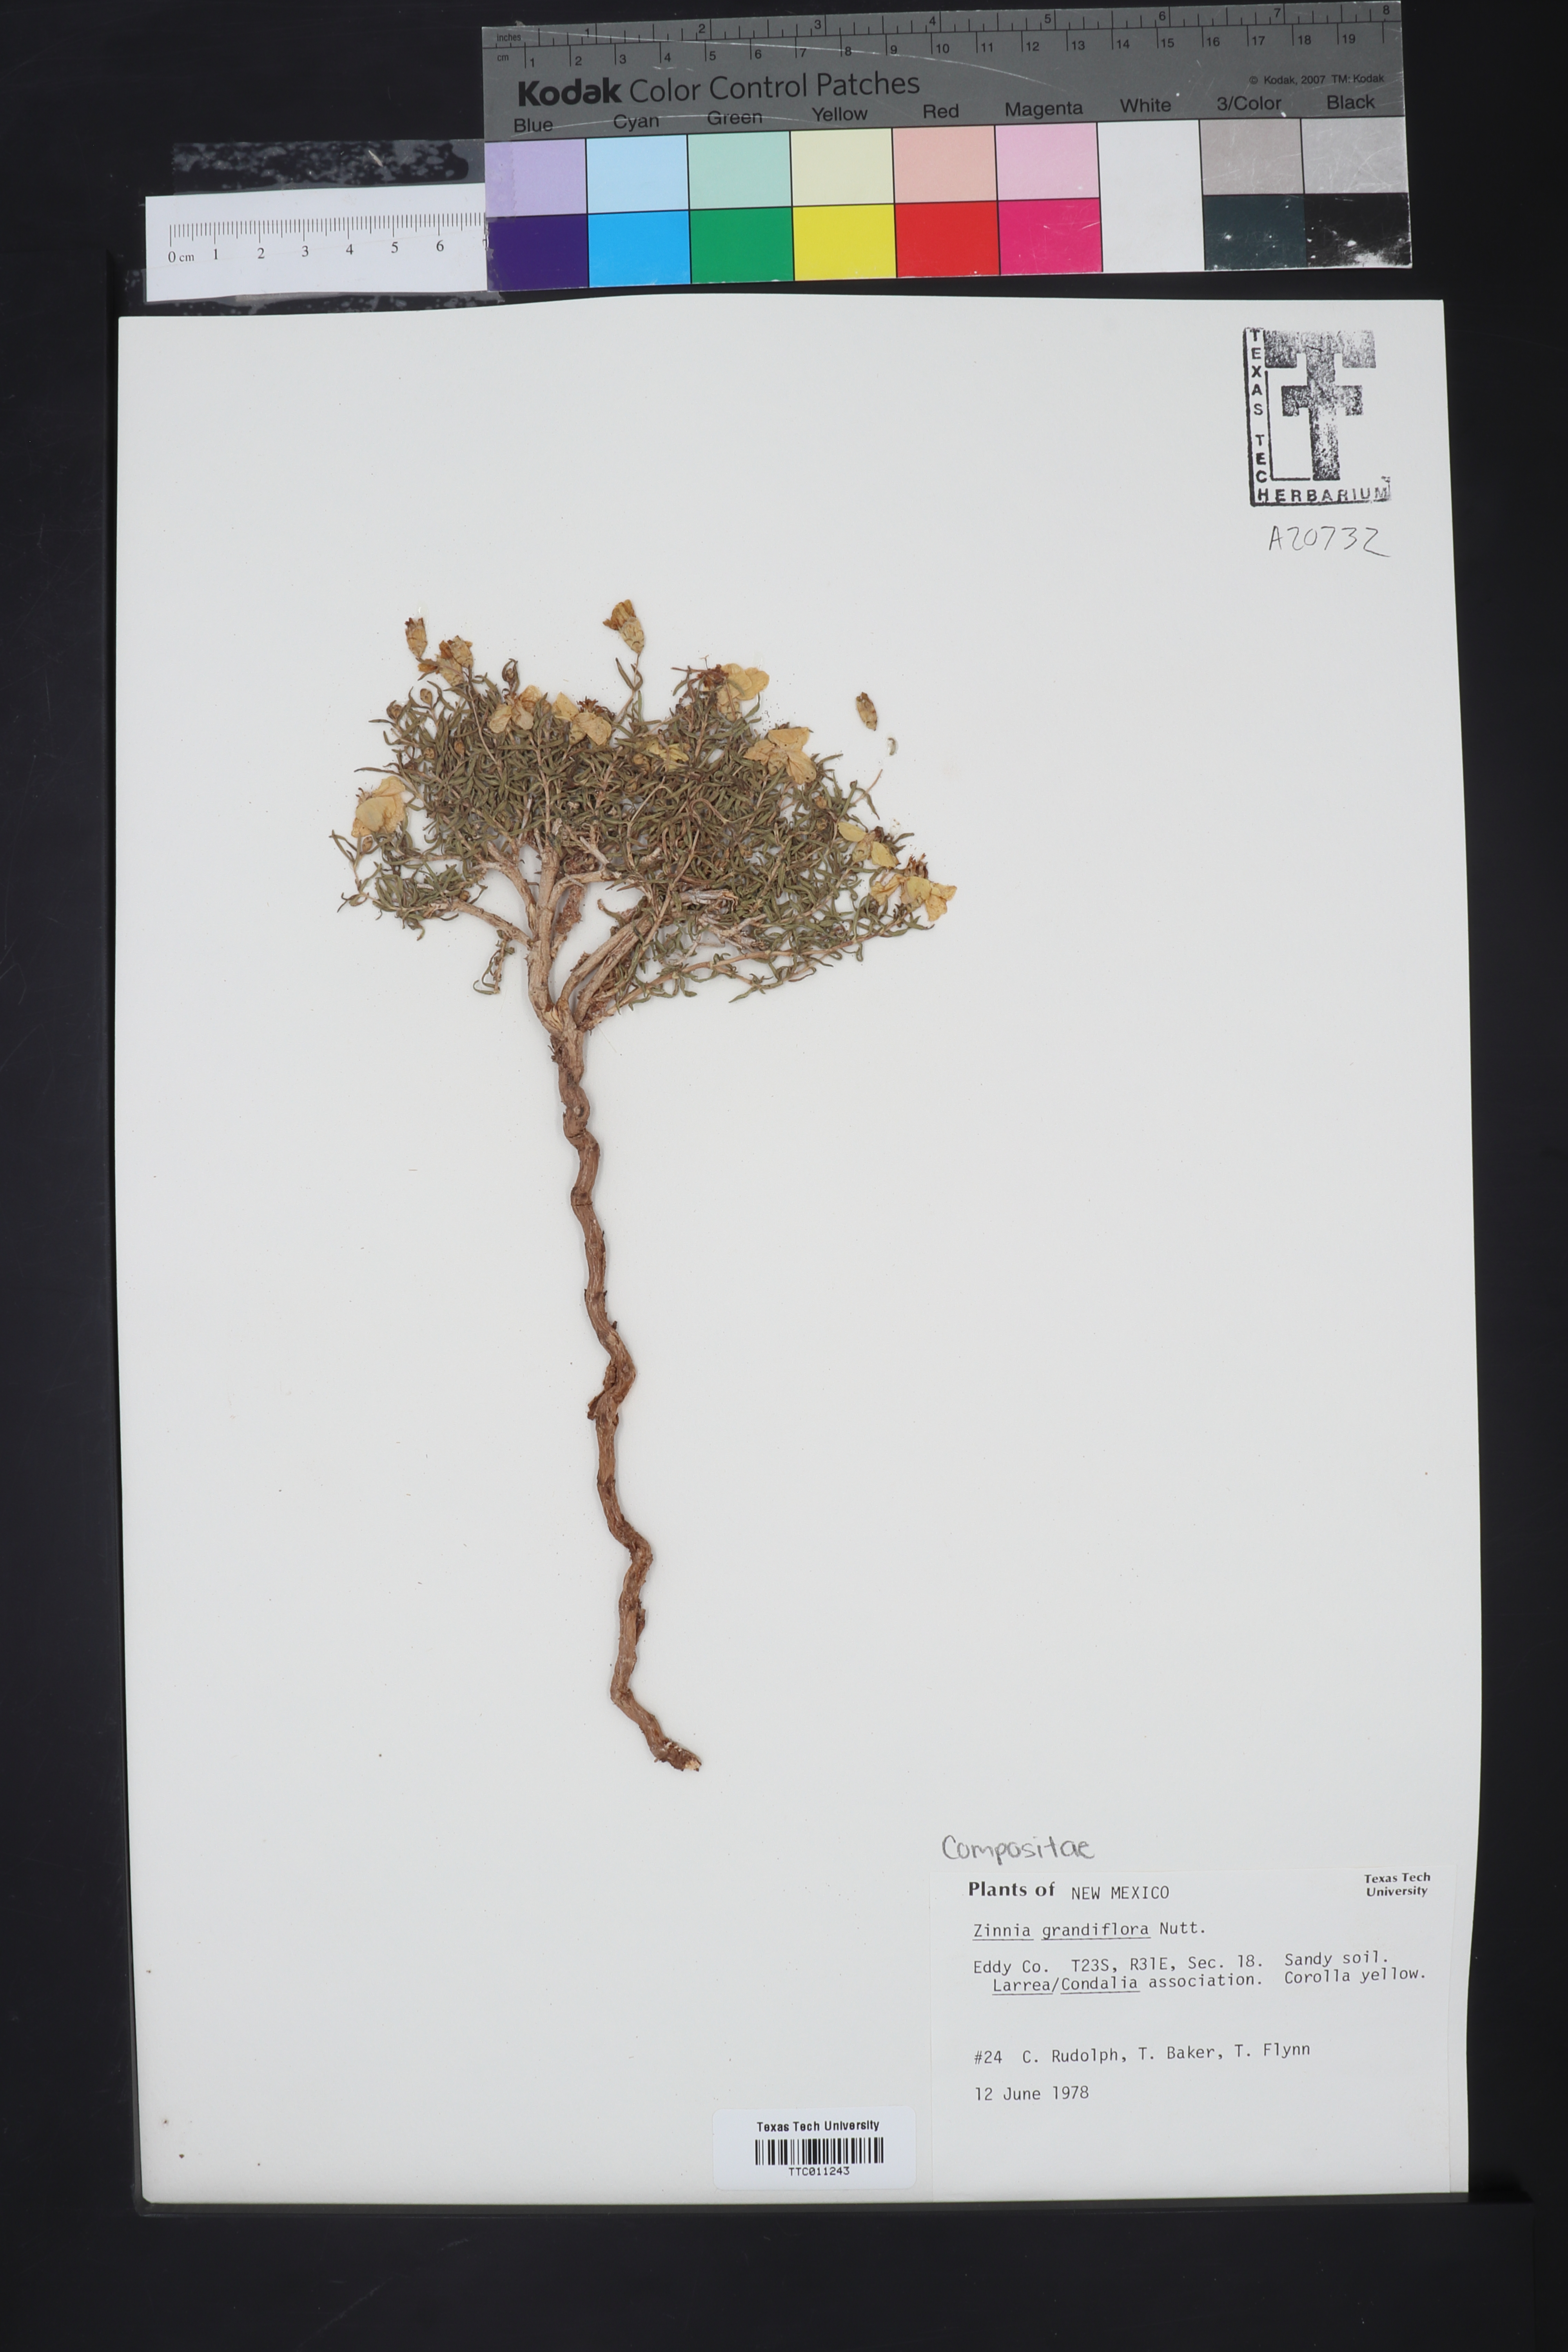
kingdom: Plantae
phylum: Tracheophyta
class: Magnoliopsida
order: Asterales
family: Asteraceae
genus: Zinnia
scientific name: Zinnia grandiflora
